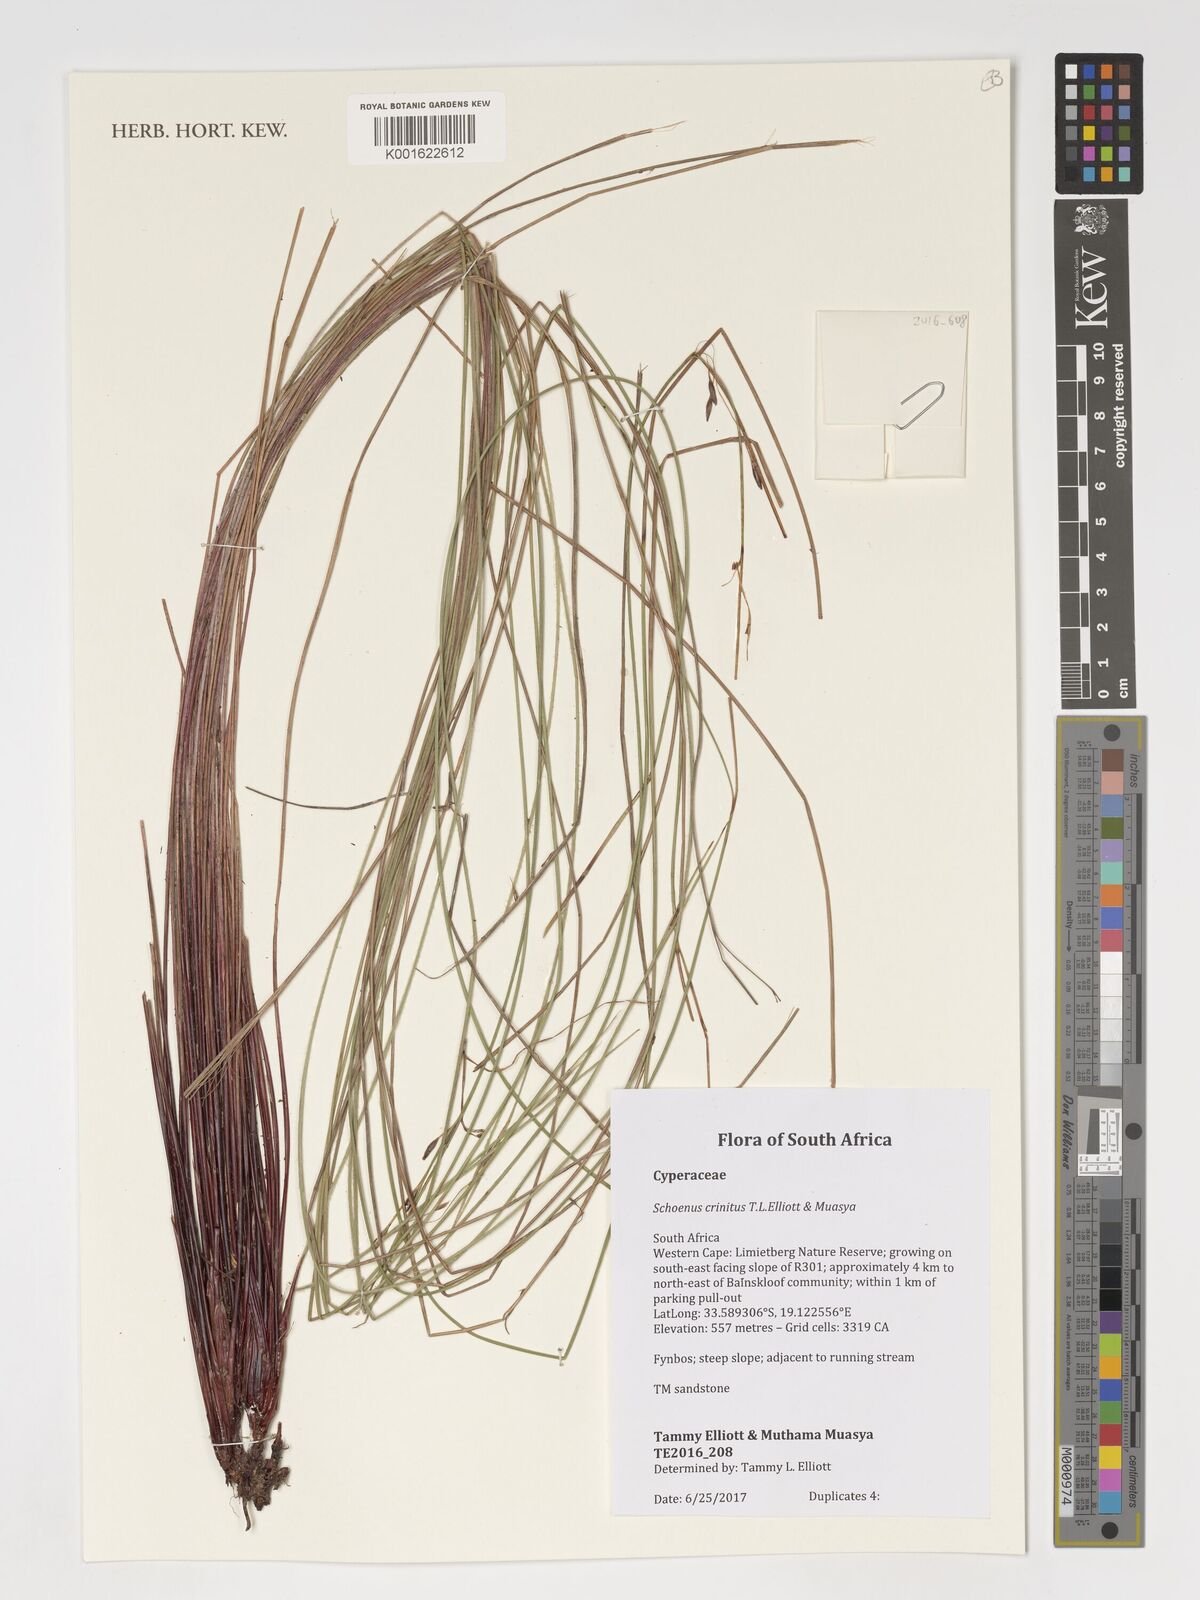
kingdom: Plantae
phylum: Tracheophyta
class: Liliopsida
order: Poales
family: Cyperaceae
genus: Schoenus
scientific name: Schoenus
